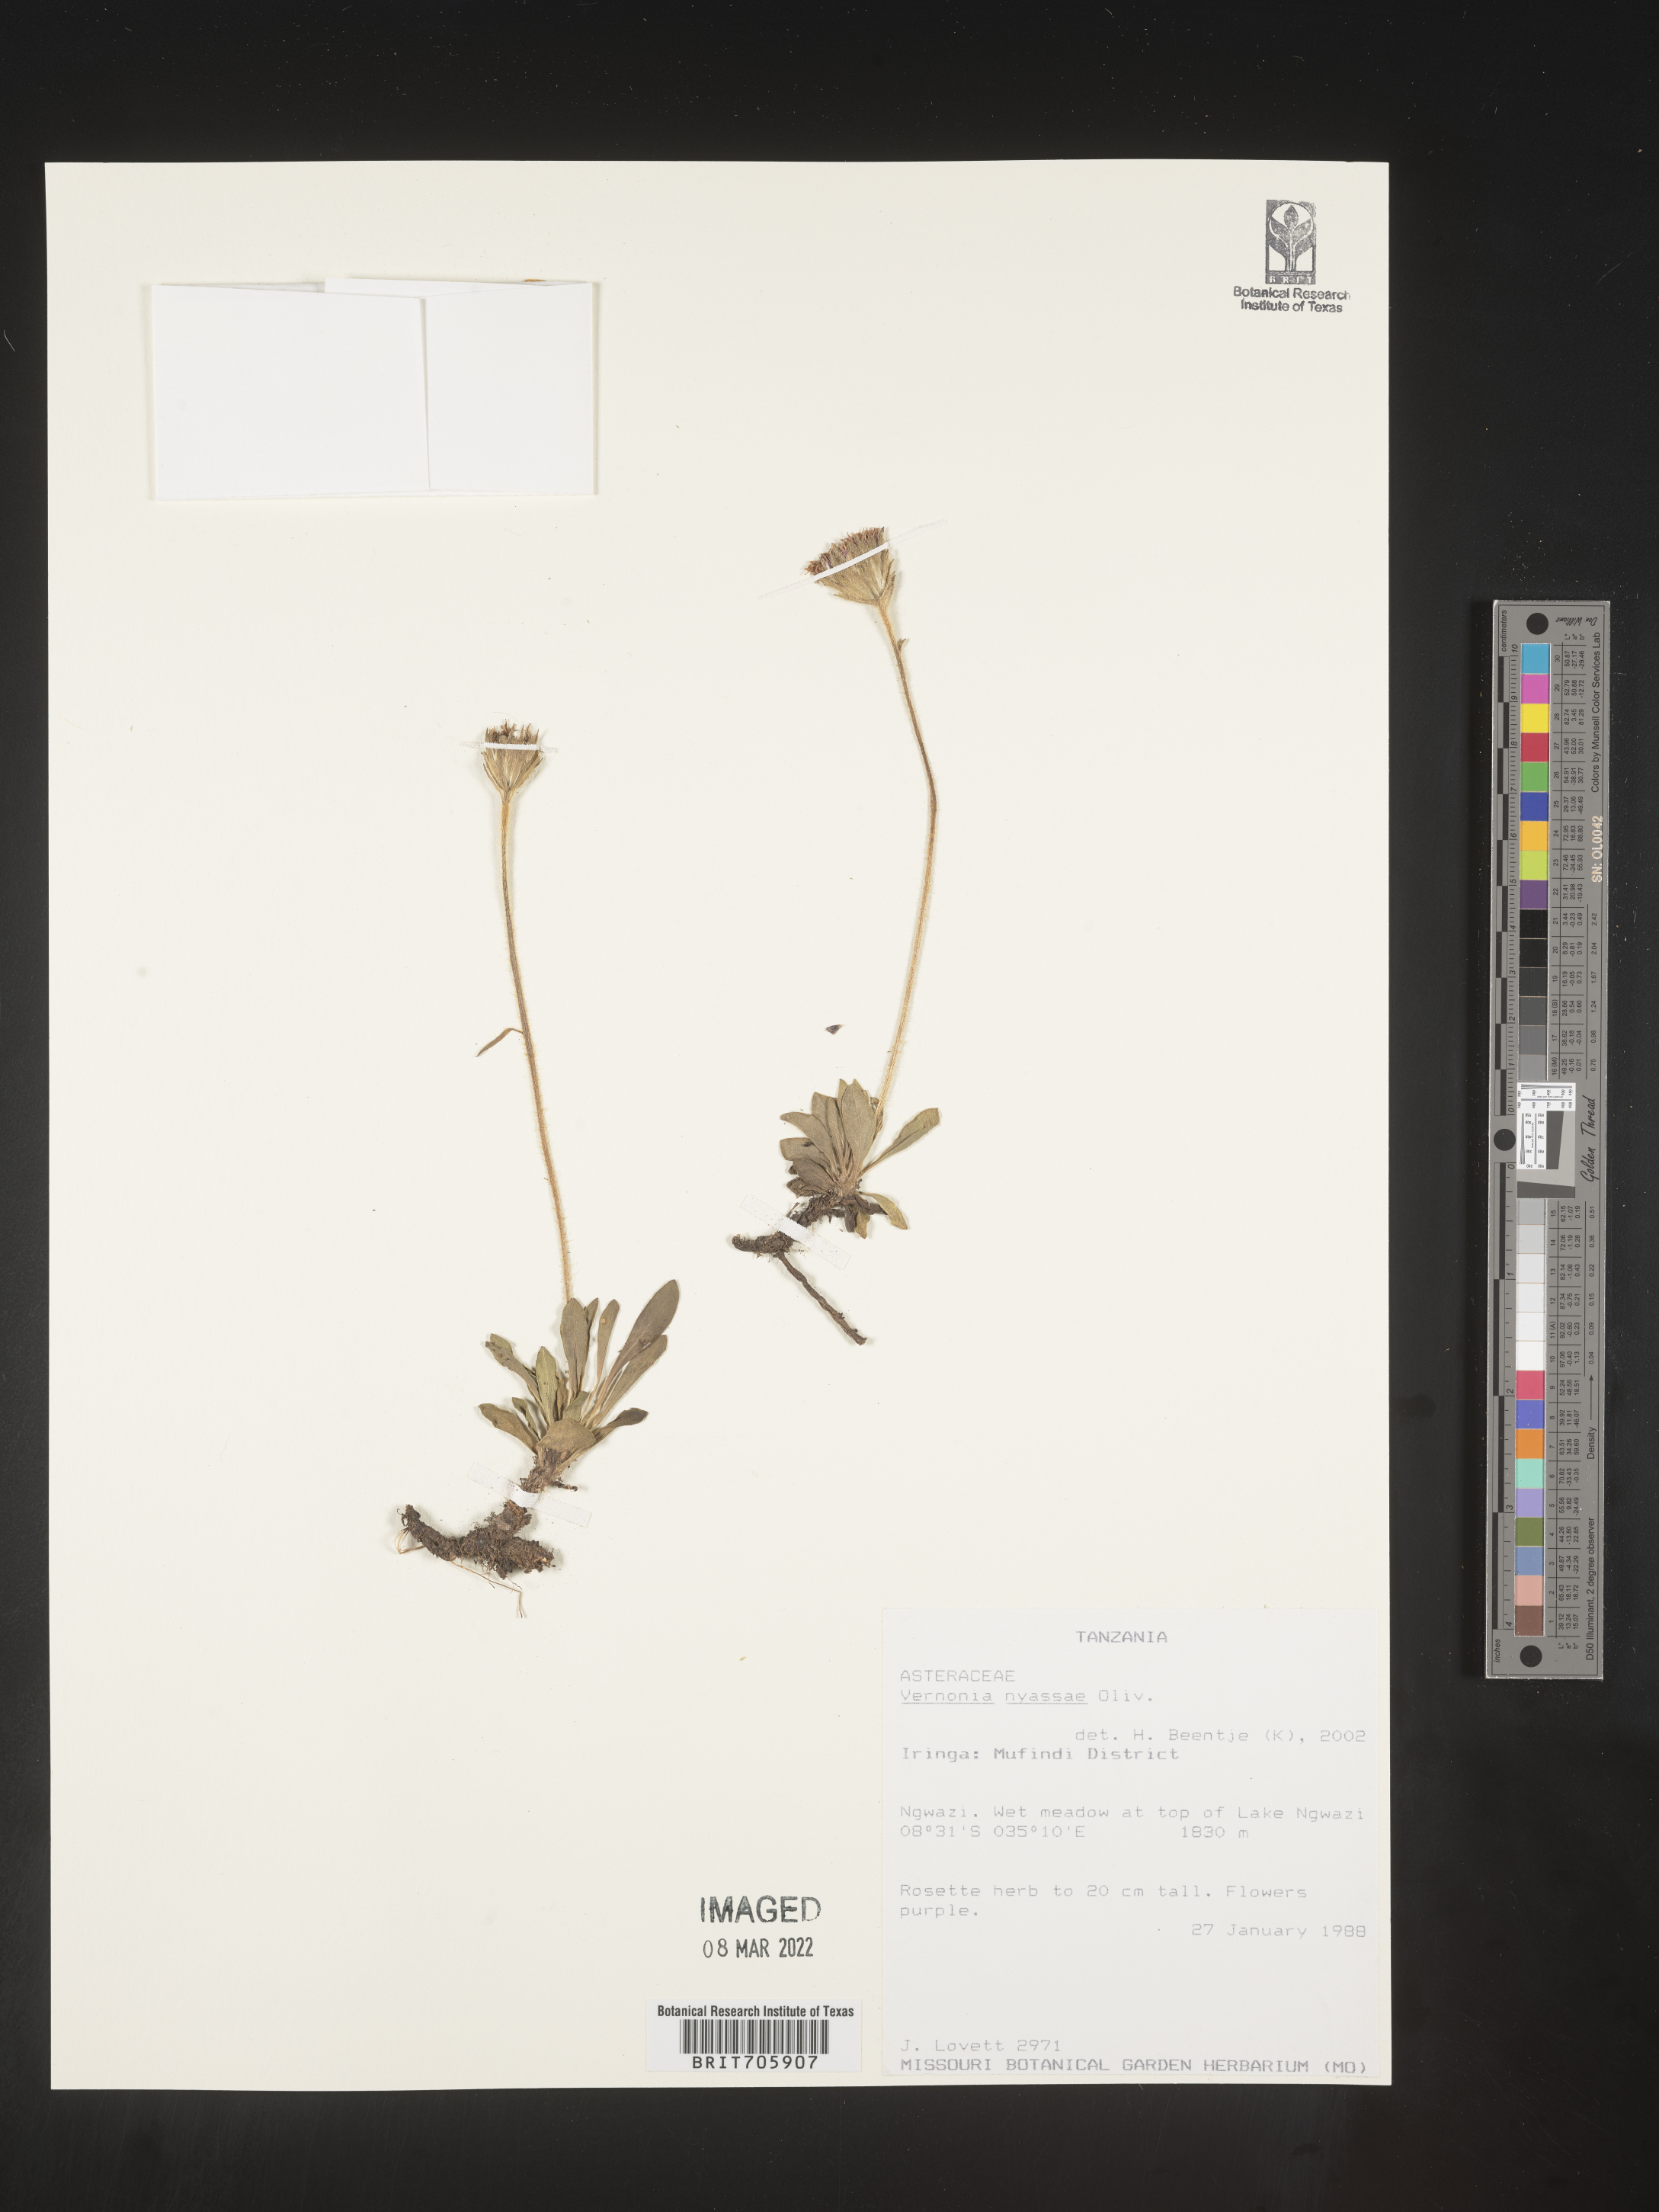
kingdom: Plantae
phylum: Tracheophyta
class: Magnoliopsida
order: Asterales
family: Asteraceae
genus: Vernonia
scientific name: Vernonia
